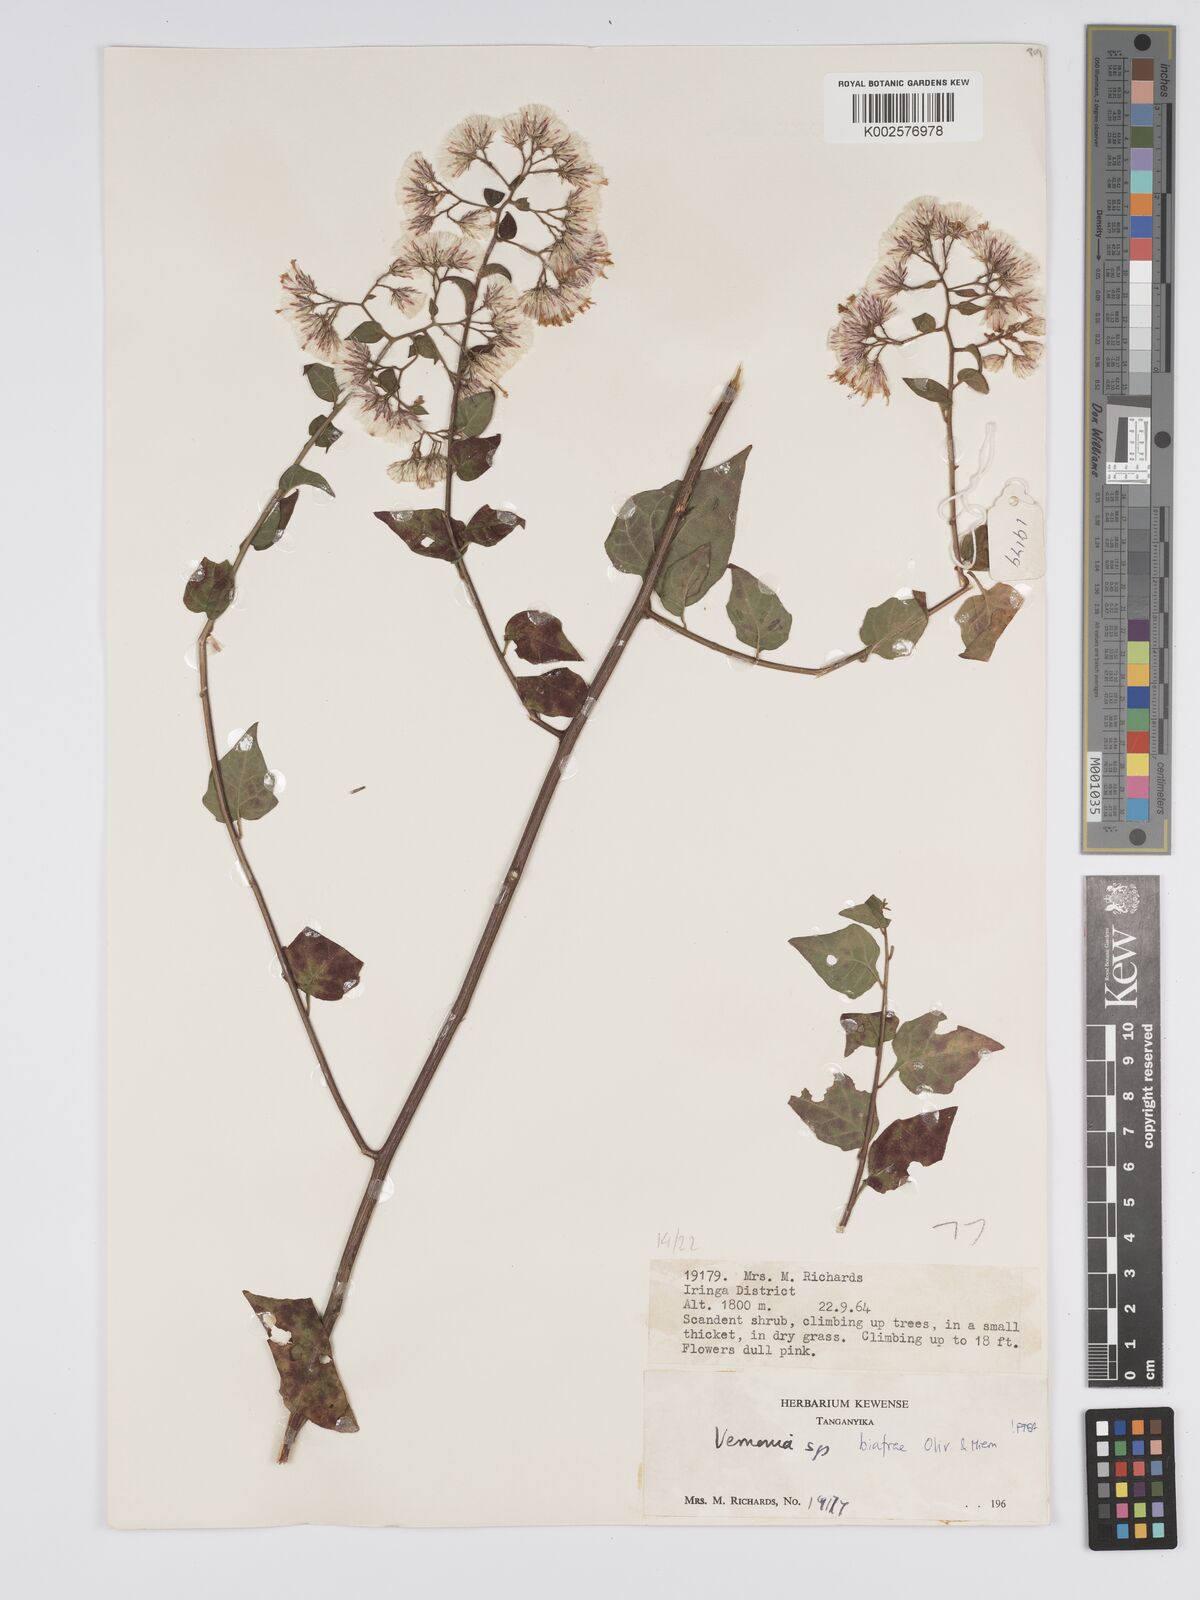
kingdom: Plantae
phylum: Tracheophyta
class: Magnoliopsida
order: Asterales
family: Asteraceae
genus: Distephanus
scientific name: Distephanus biafrae
